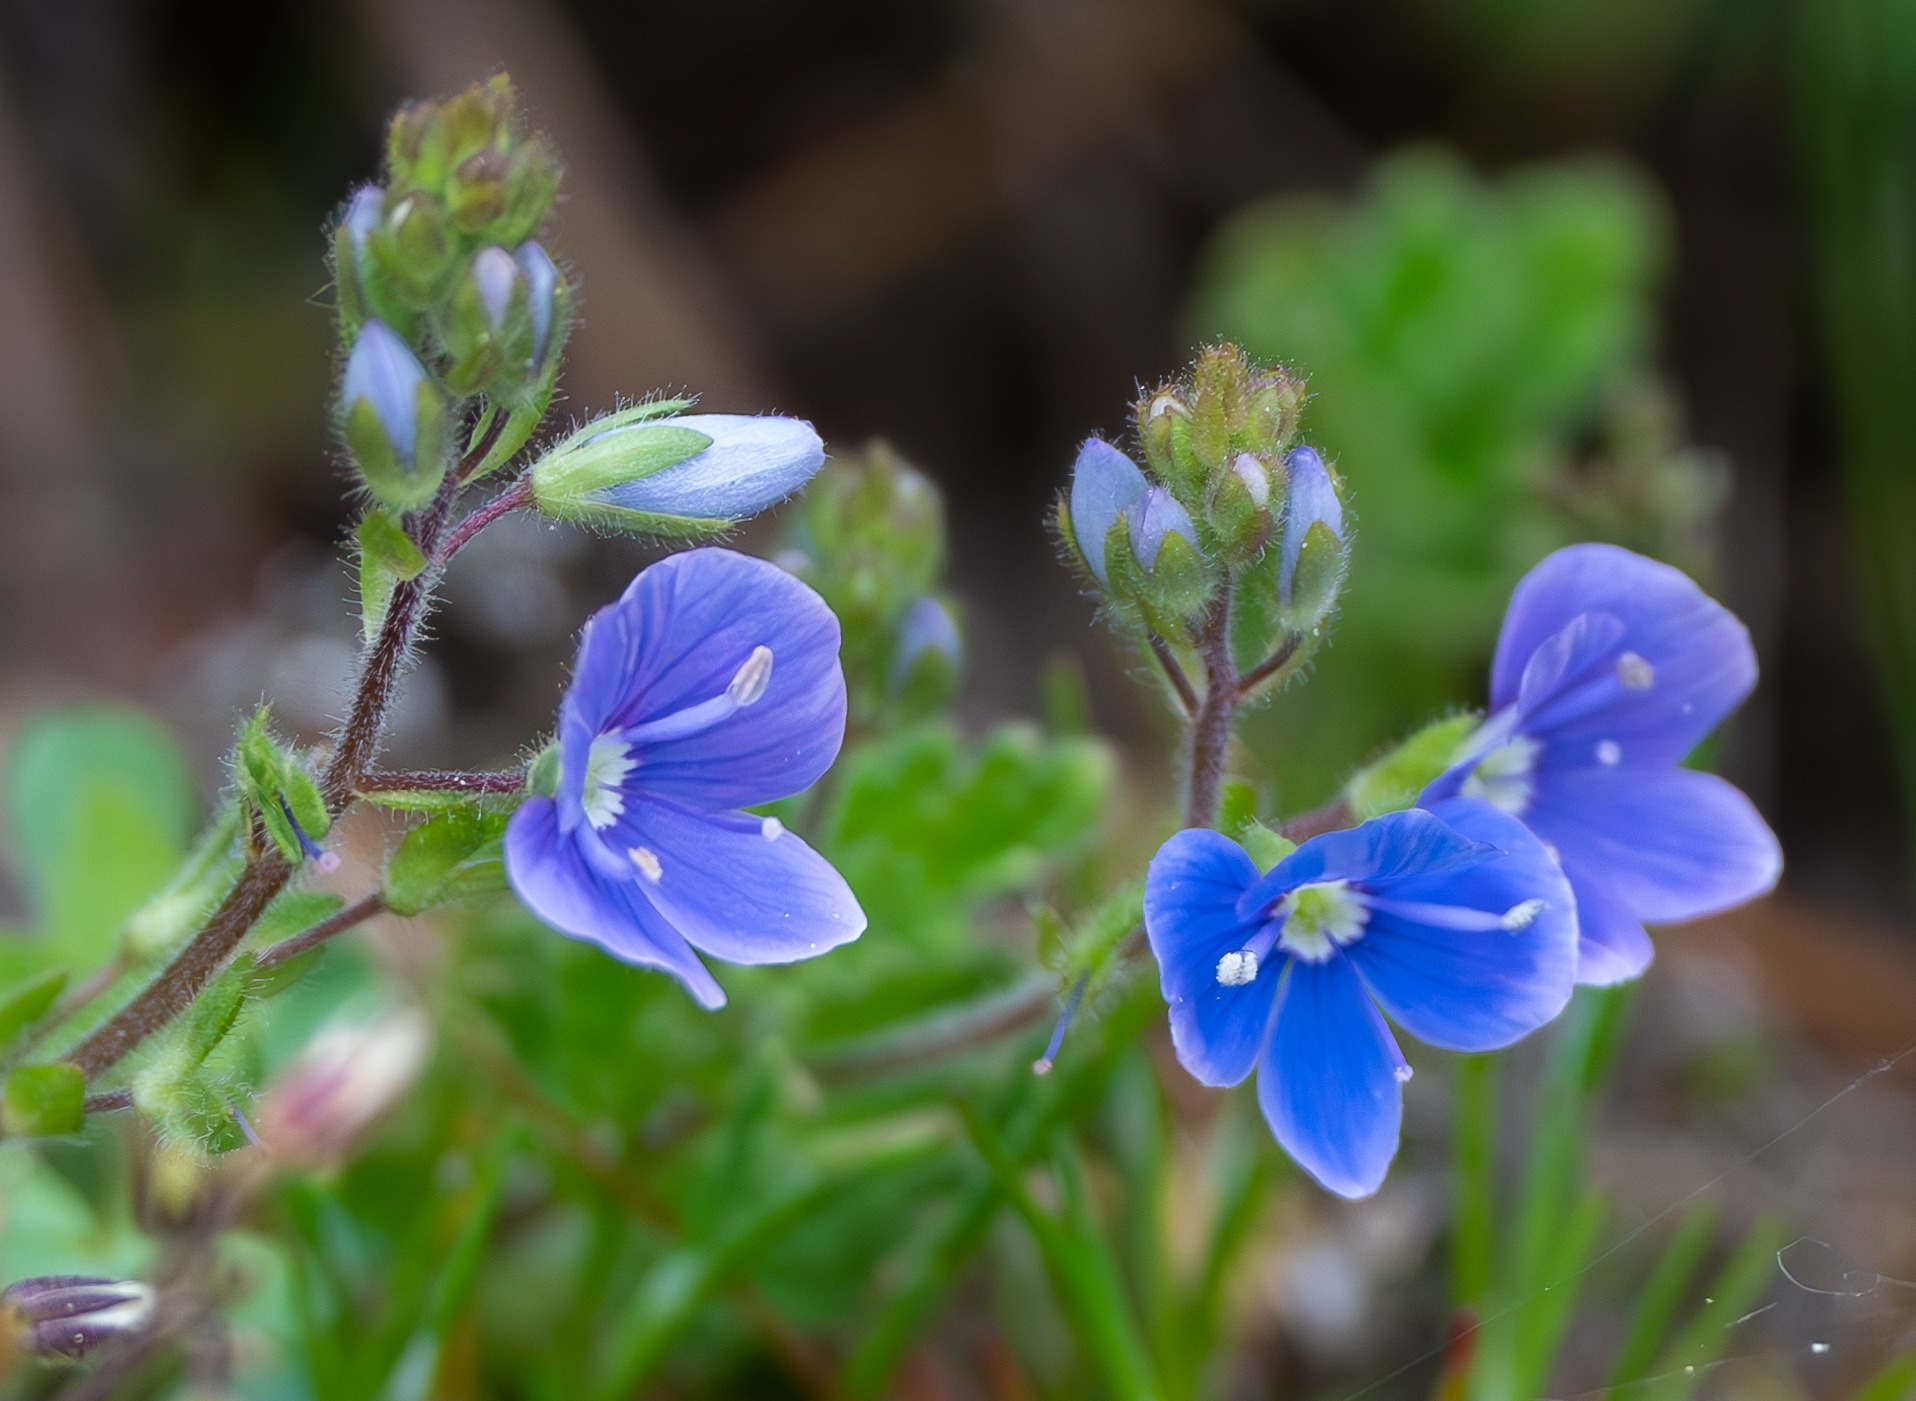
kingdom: Plantae
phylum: Tracheophyta
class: Magnoliopsida
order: Lamiales
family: Plantaginaceae
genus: Veronica
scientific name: Veronica chamaedrys
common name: Tveskægget ærenpris
